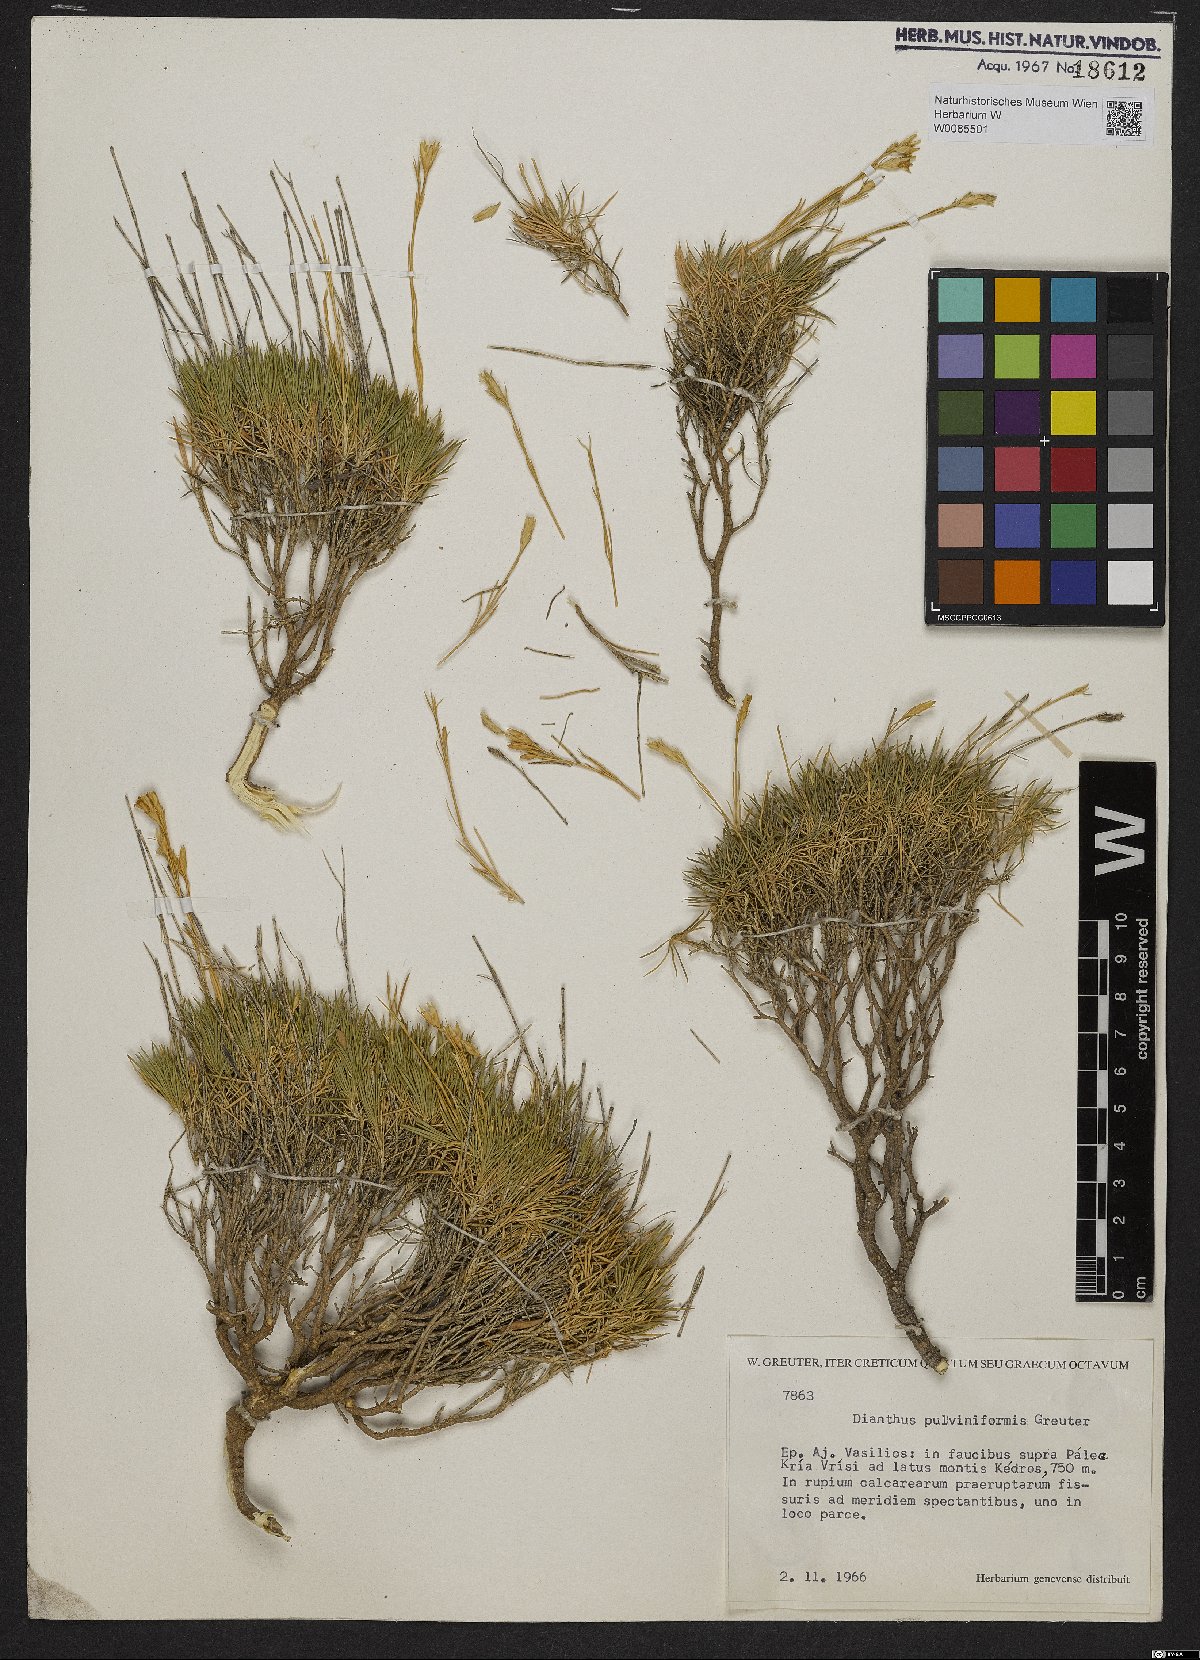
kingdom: Plantae
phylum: Tracheophyta
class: Magnoliopsida
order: Caryophyllales
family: Caryophyllaceae
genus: Dianthus
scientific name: Dianthus juniperinus
